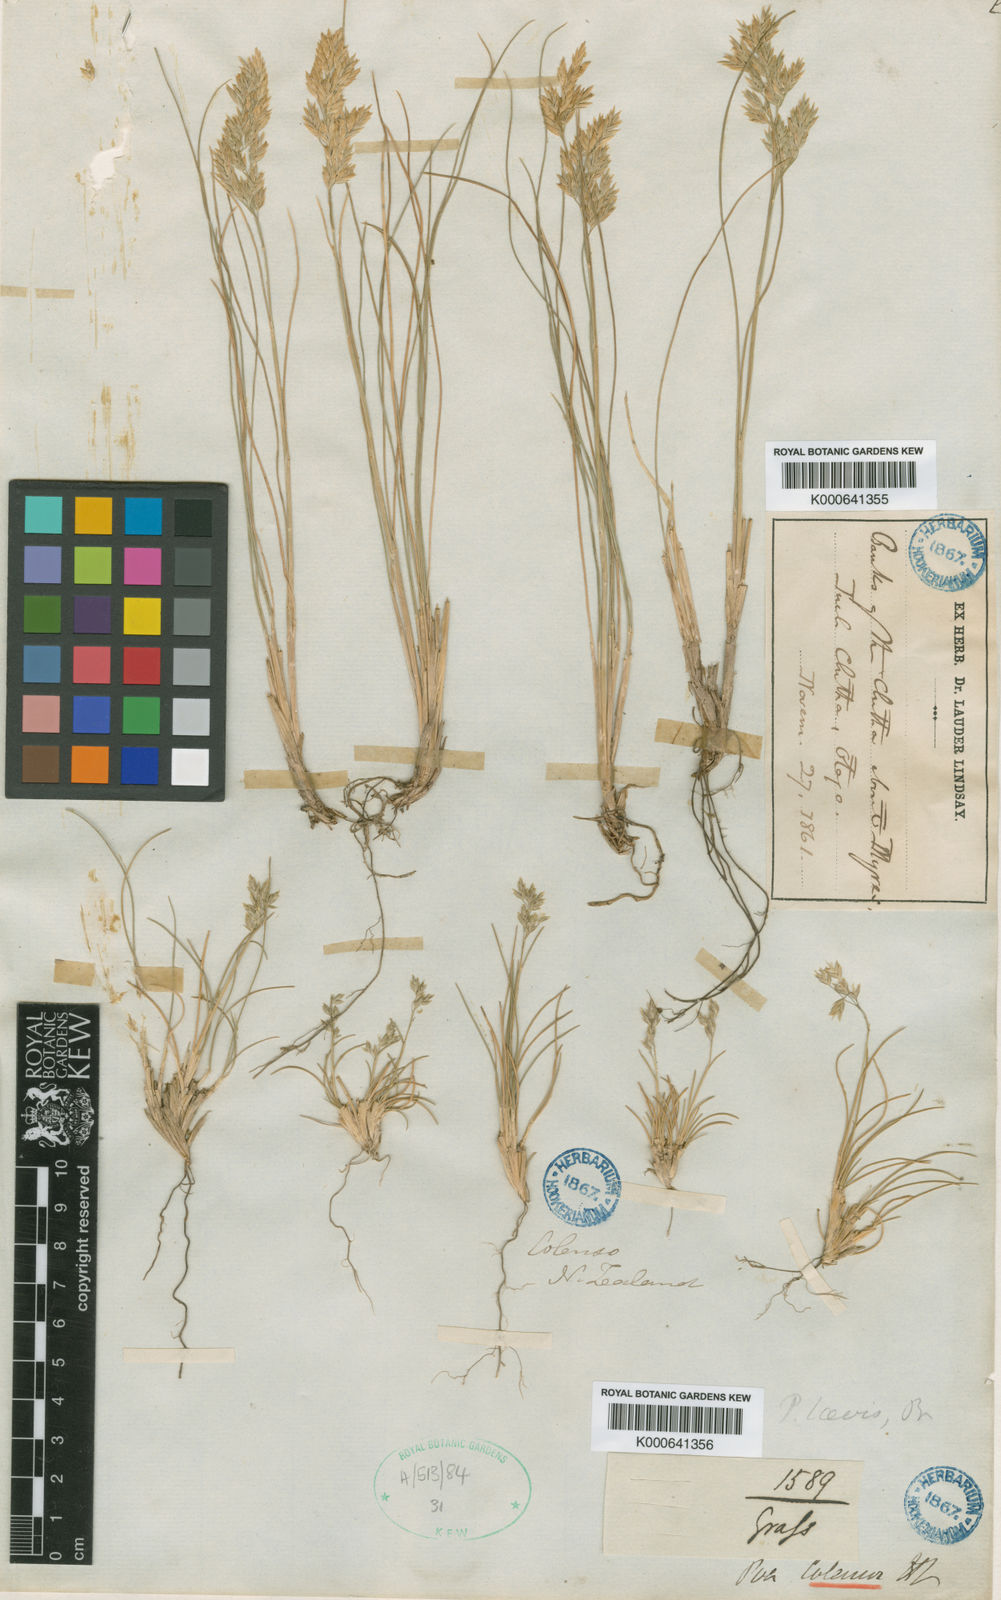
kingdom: Plantae
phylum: Tracheophyta
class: Liliopsida
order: Poales
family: Poaceae
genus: Poa
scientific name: Poa colensoi
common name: Blue tussock
